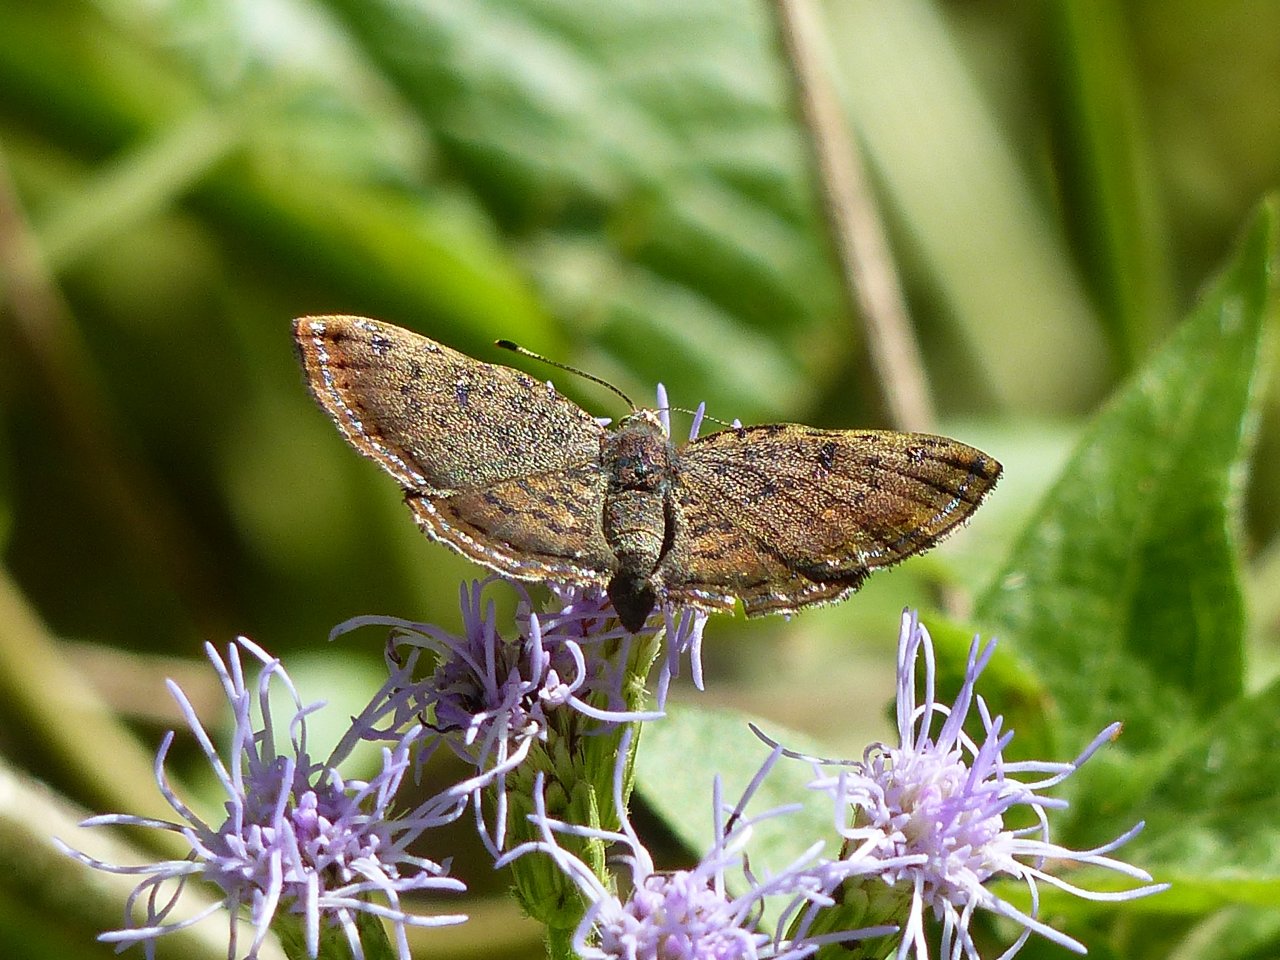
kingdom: Animalia
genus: Caria
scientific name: Caria ino
